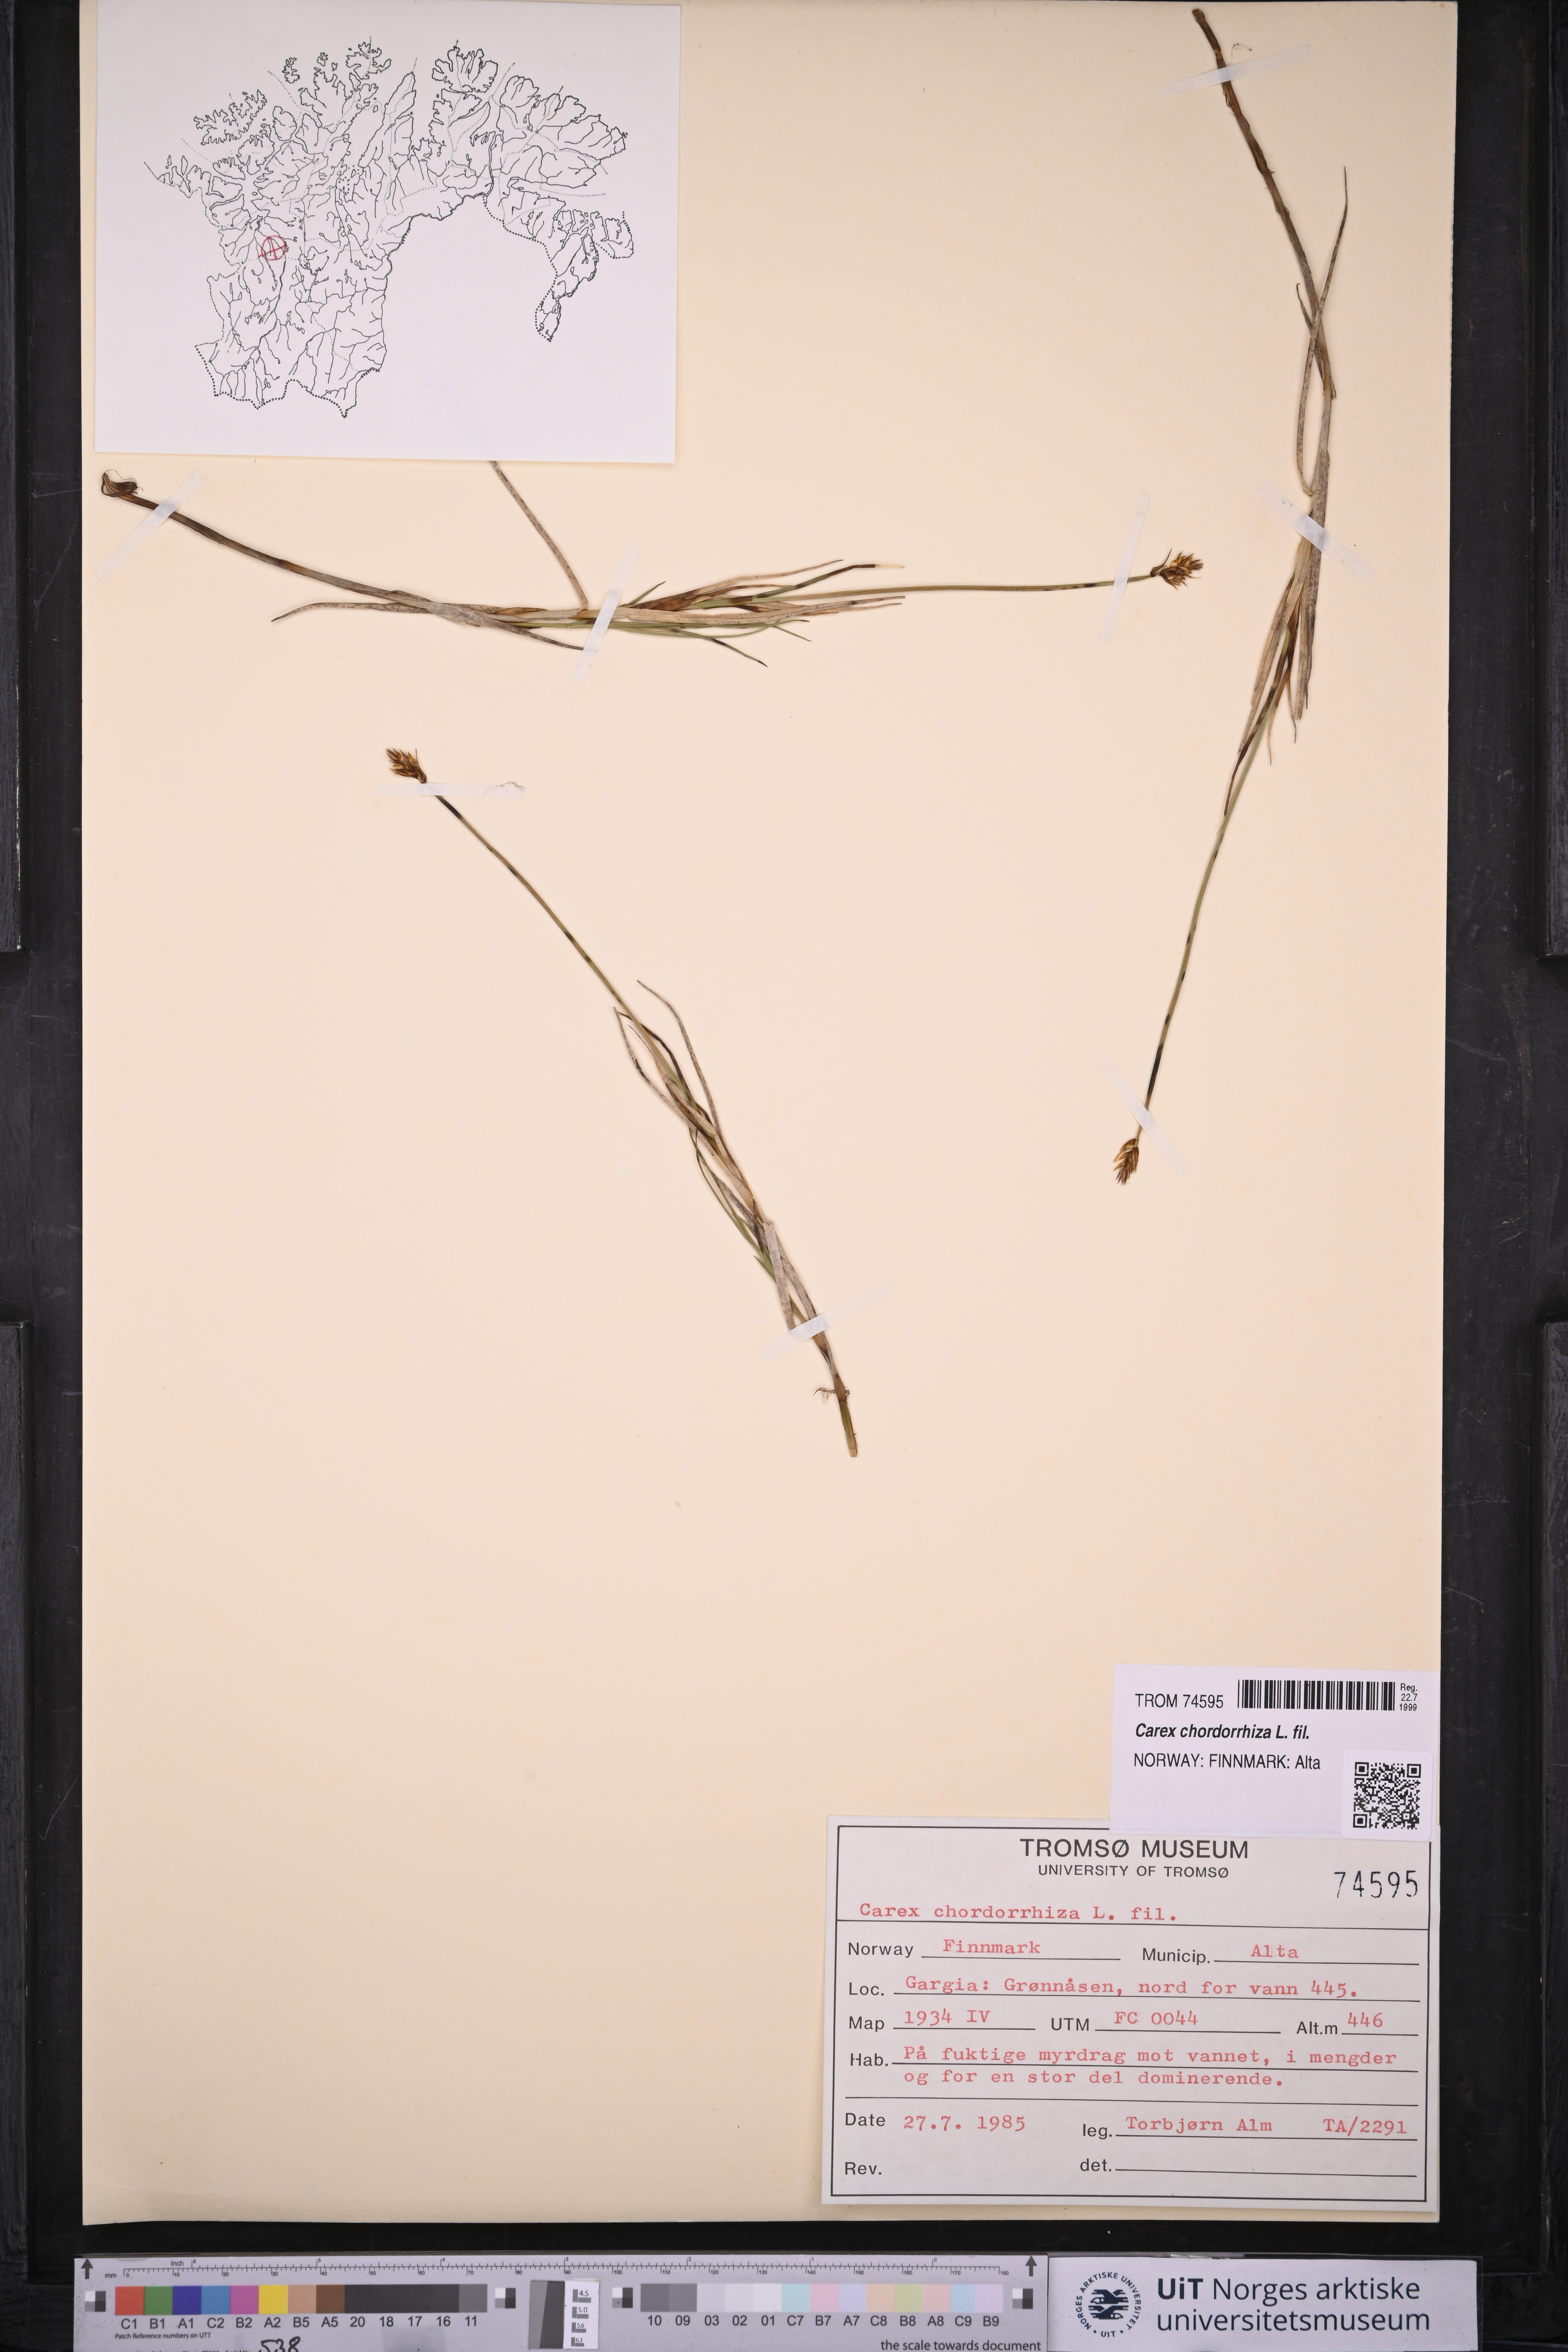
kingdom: Plantae
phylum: Tracheophyta
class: Liliopsida
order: Poales
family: Cyperaceae
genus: Carex
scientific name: Carex chordorrhiza
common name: String sedge
